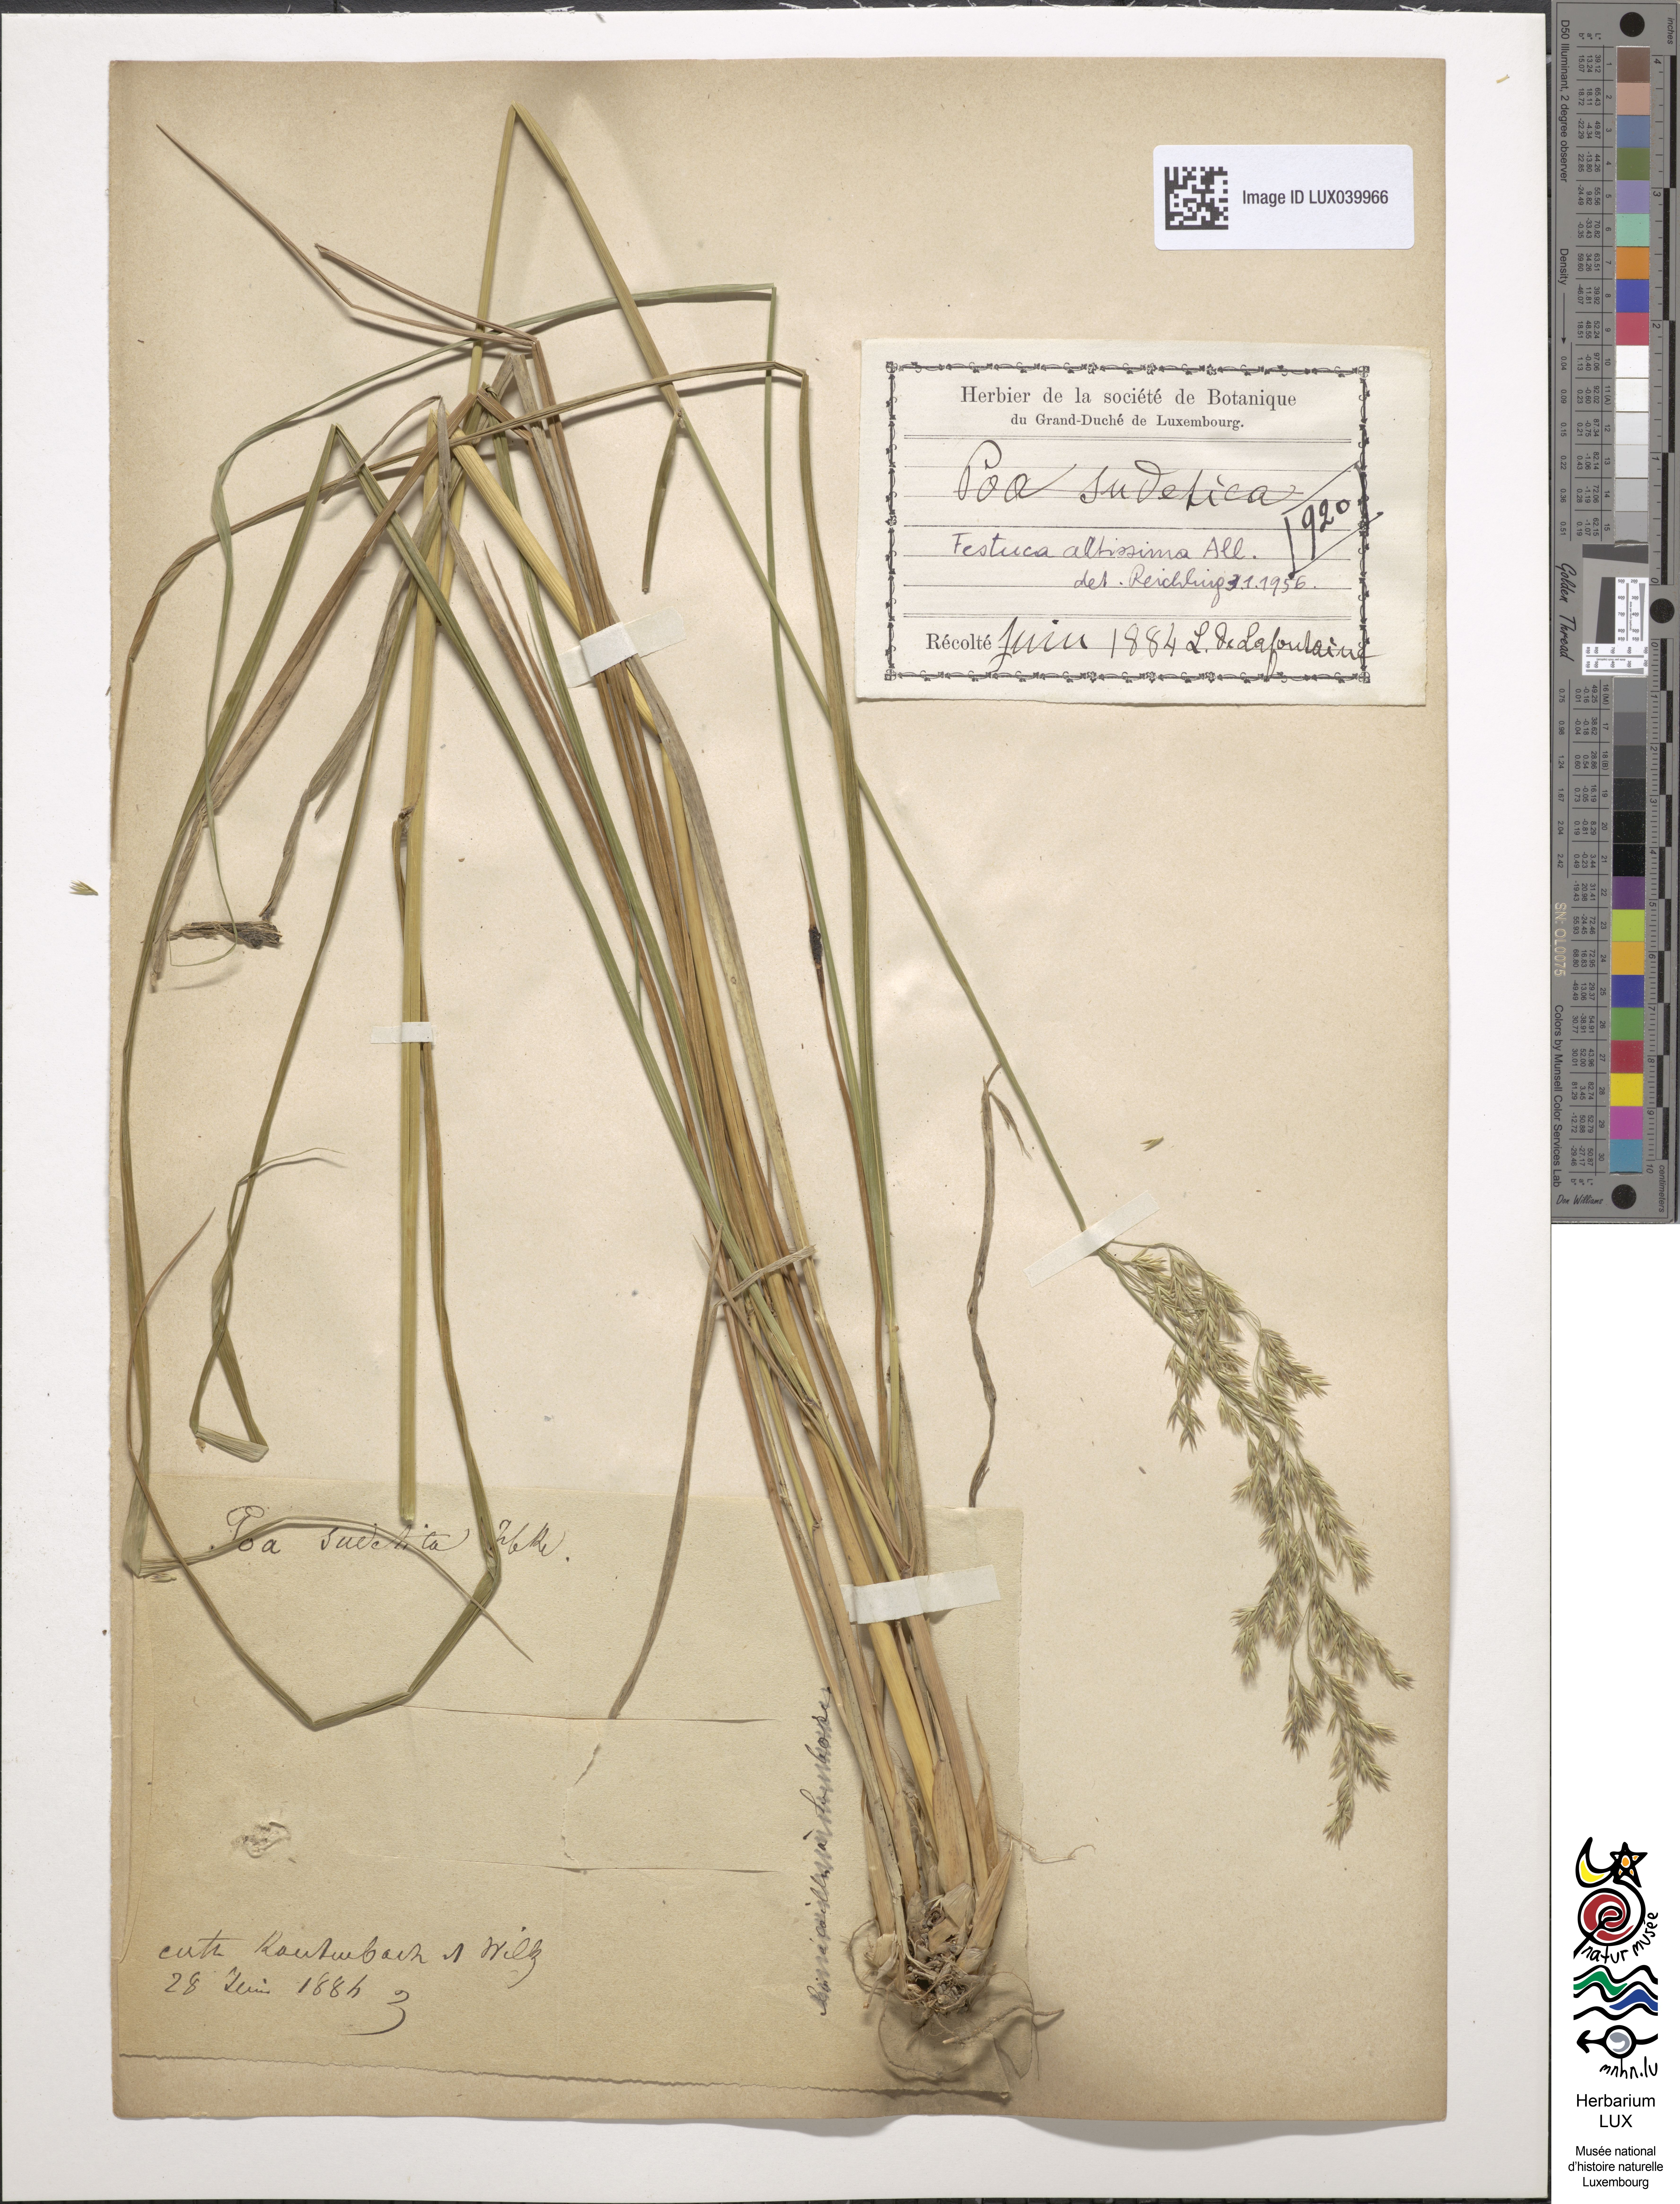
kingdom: Plantae
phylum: Tracheophyta
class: Liliopsida
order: Poales
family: Poaceae
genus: Festuca
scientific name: Festuca altissima
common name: Wood fescue
